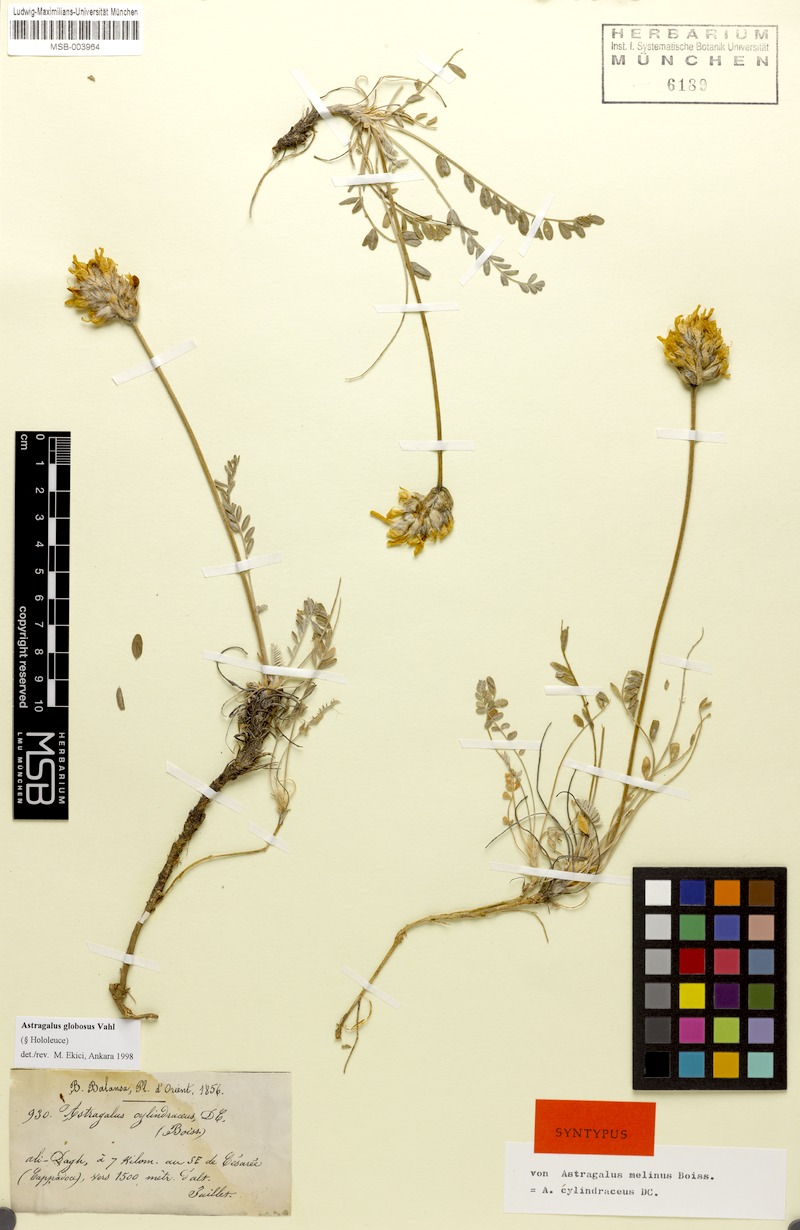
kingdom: Plantae
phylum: Tracheophyta
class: Magnoliopsida
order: Fabales
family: Fabaceae
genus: Astragalus
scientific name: Astragalus globosus
